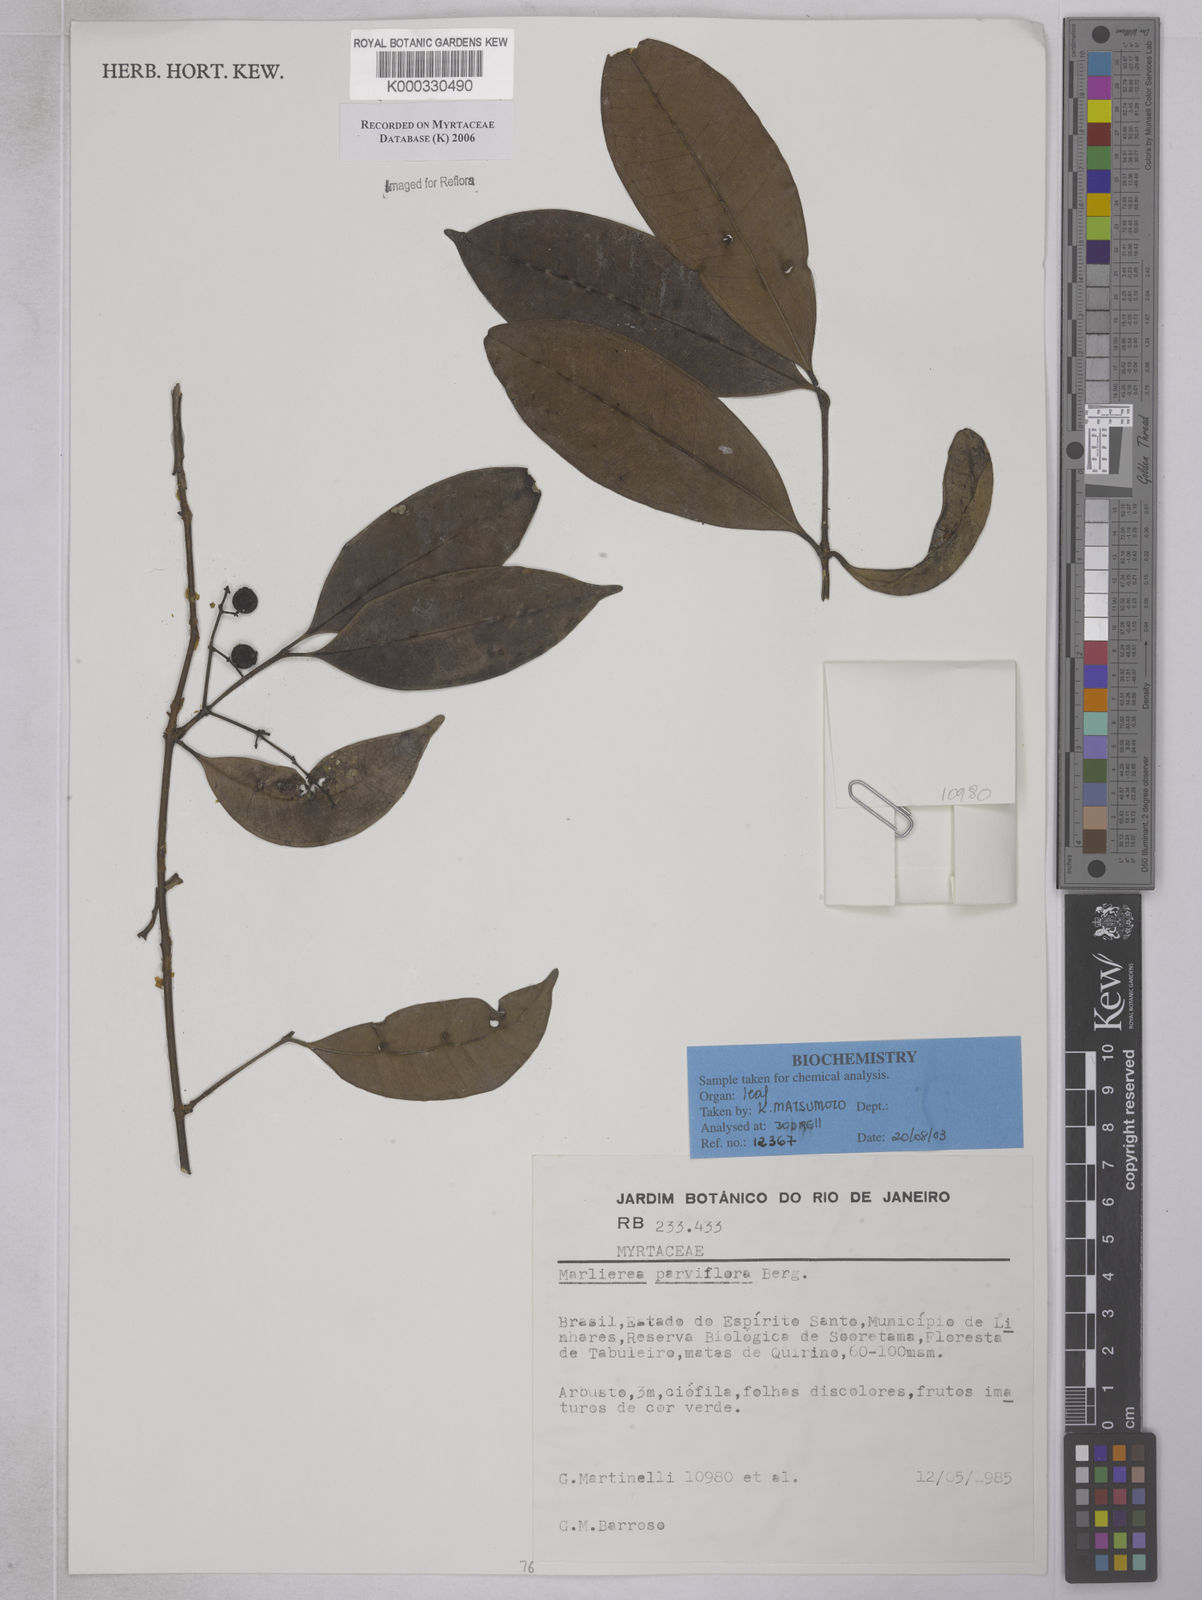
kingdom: Plantae
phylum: Tracheophyta
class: Magnoliopsida
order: Myrtales
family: Myrtaceae
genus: Marlierea
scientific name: Marlierea
